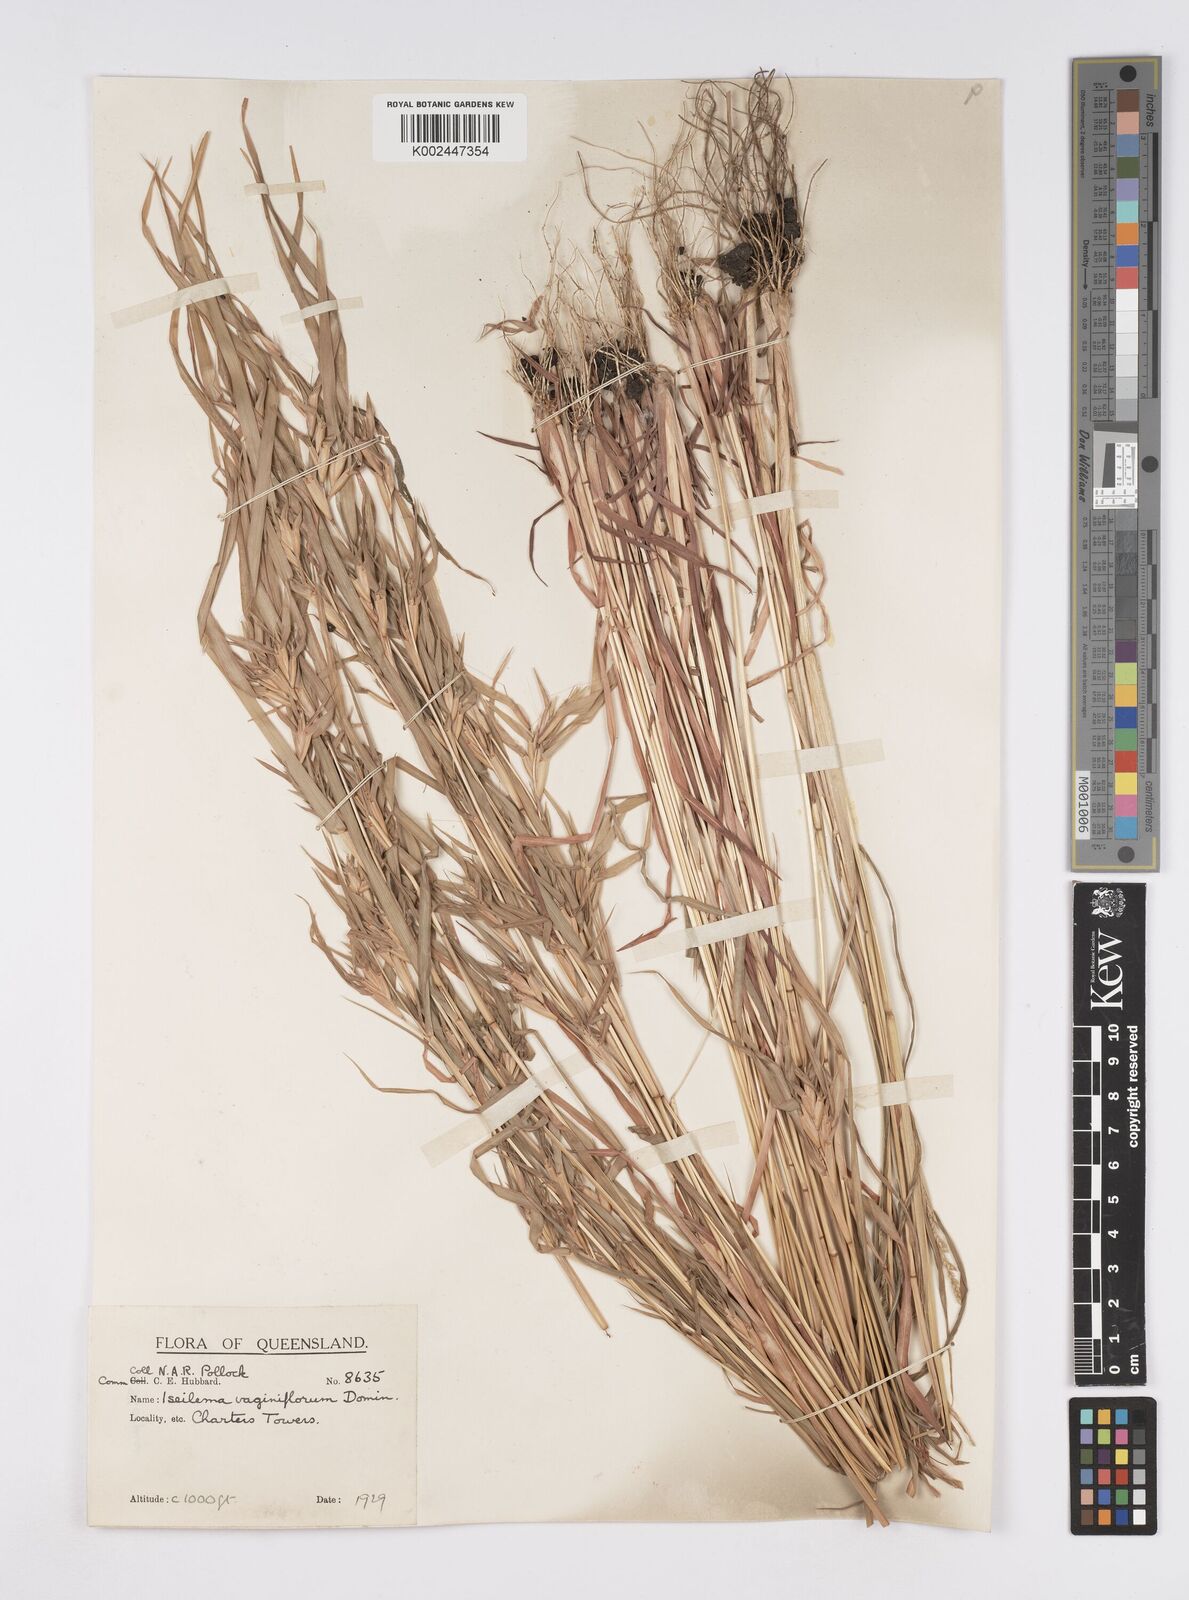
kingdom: Plantae
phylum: Tracheophyta
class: Liliopsida
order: Poales
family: Poaceae
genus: Iseilema
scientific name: Iseilema vaginiflorum
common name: Red flinders grass
